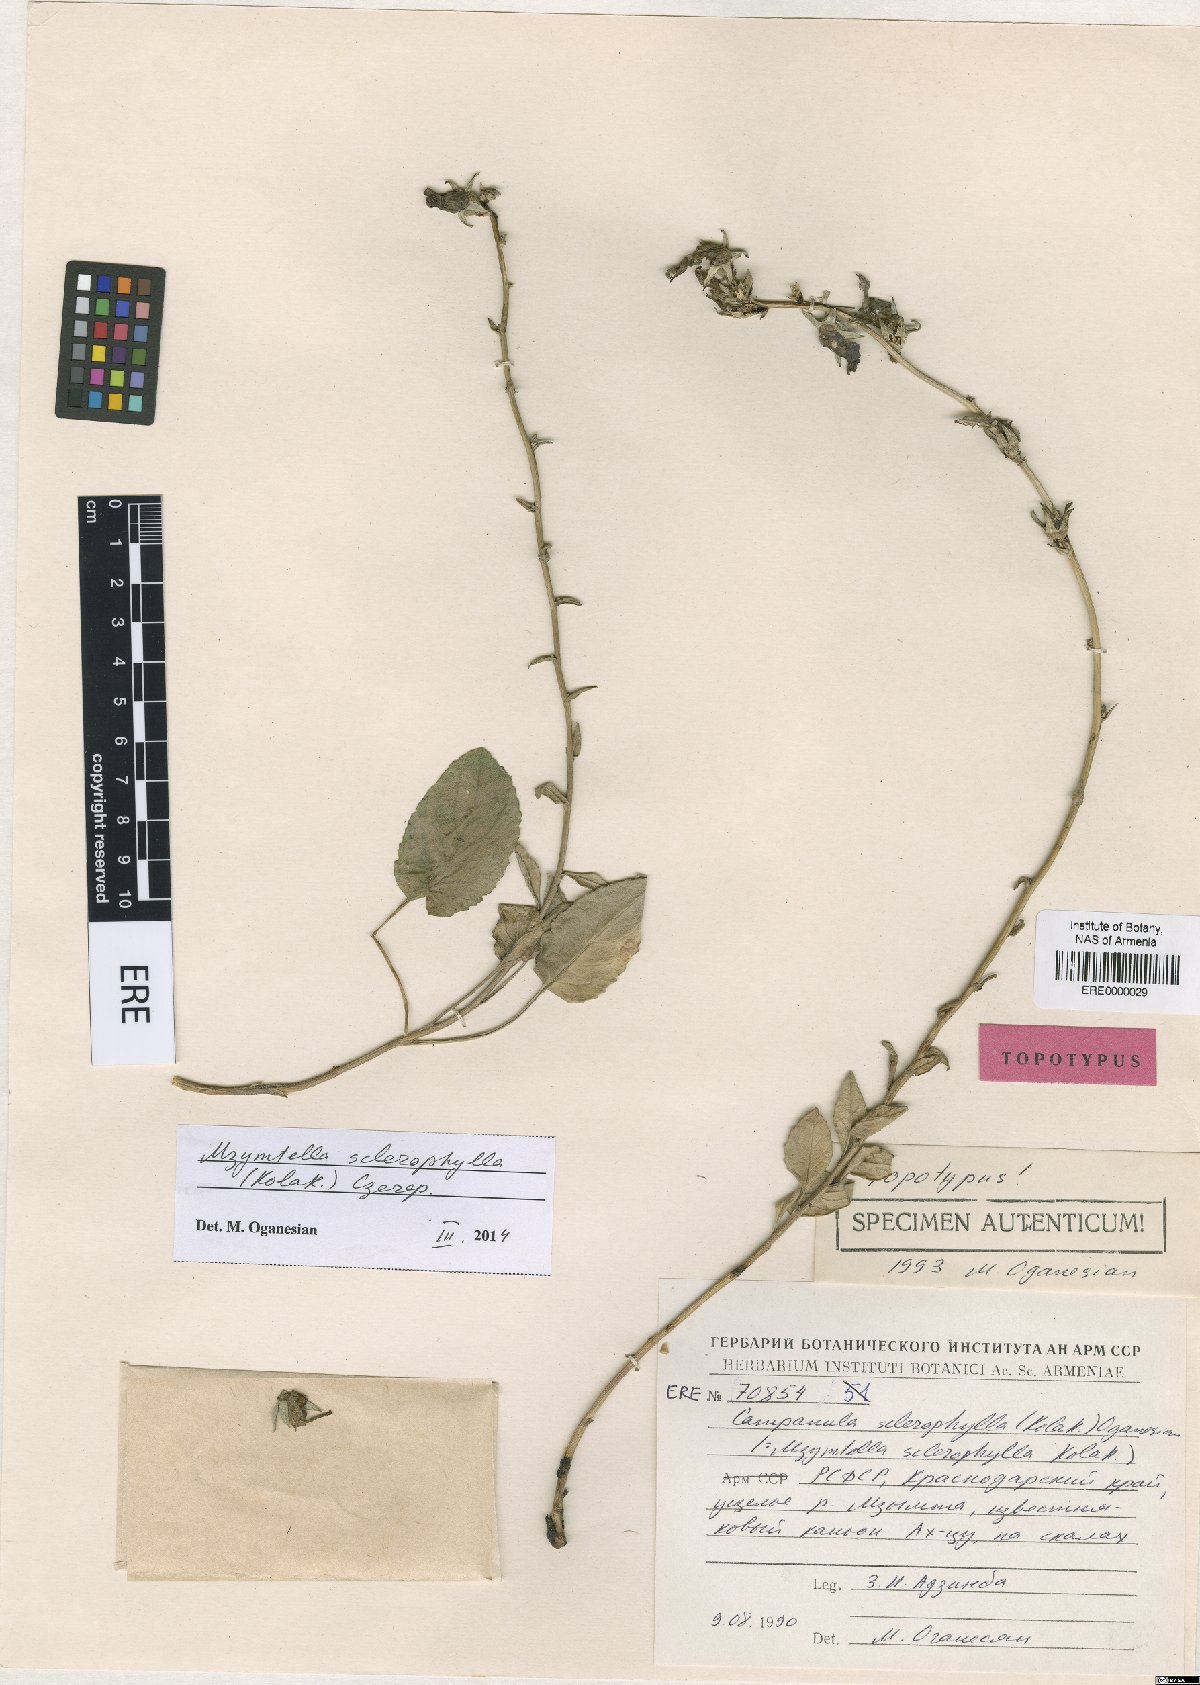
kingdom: Plantae
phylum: Tracheophyta
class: Magnoliopsida
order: Asterales
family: Campanulaceae
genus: Campanula
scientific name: Campanula sclerophylla
